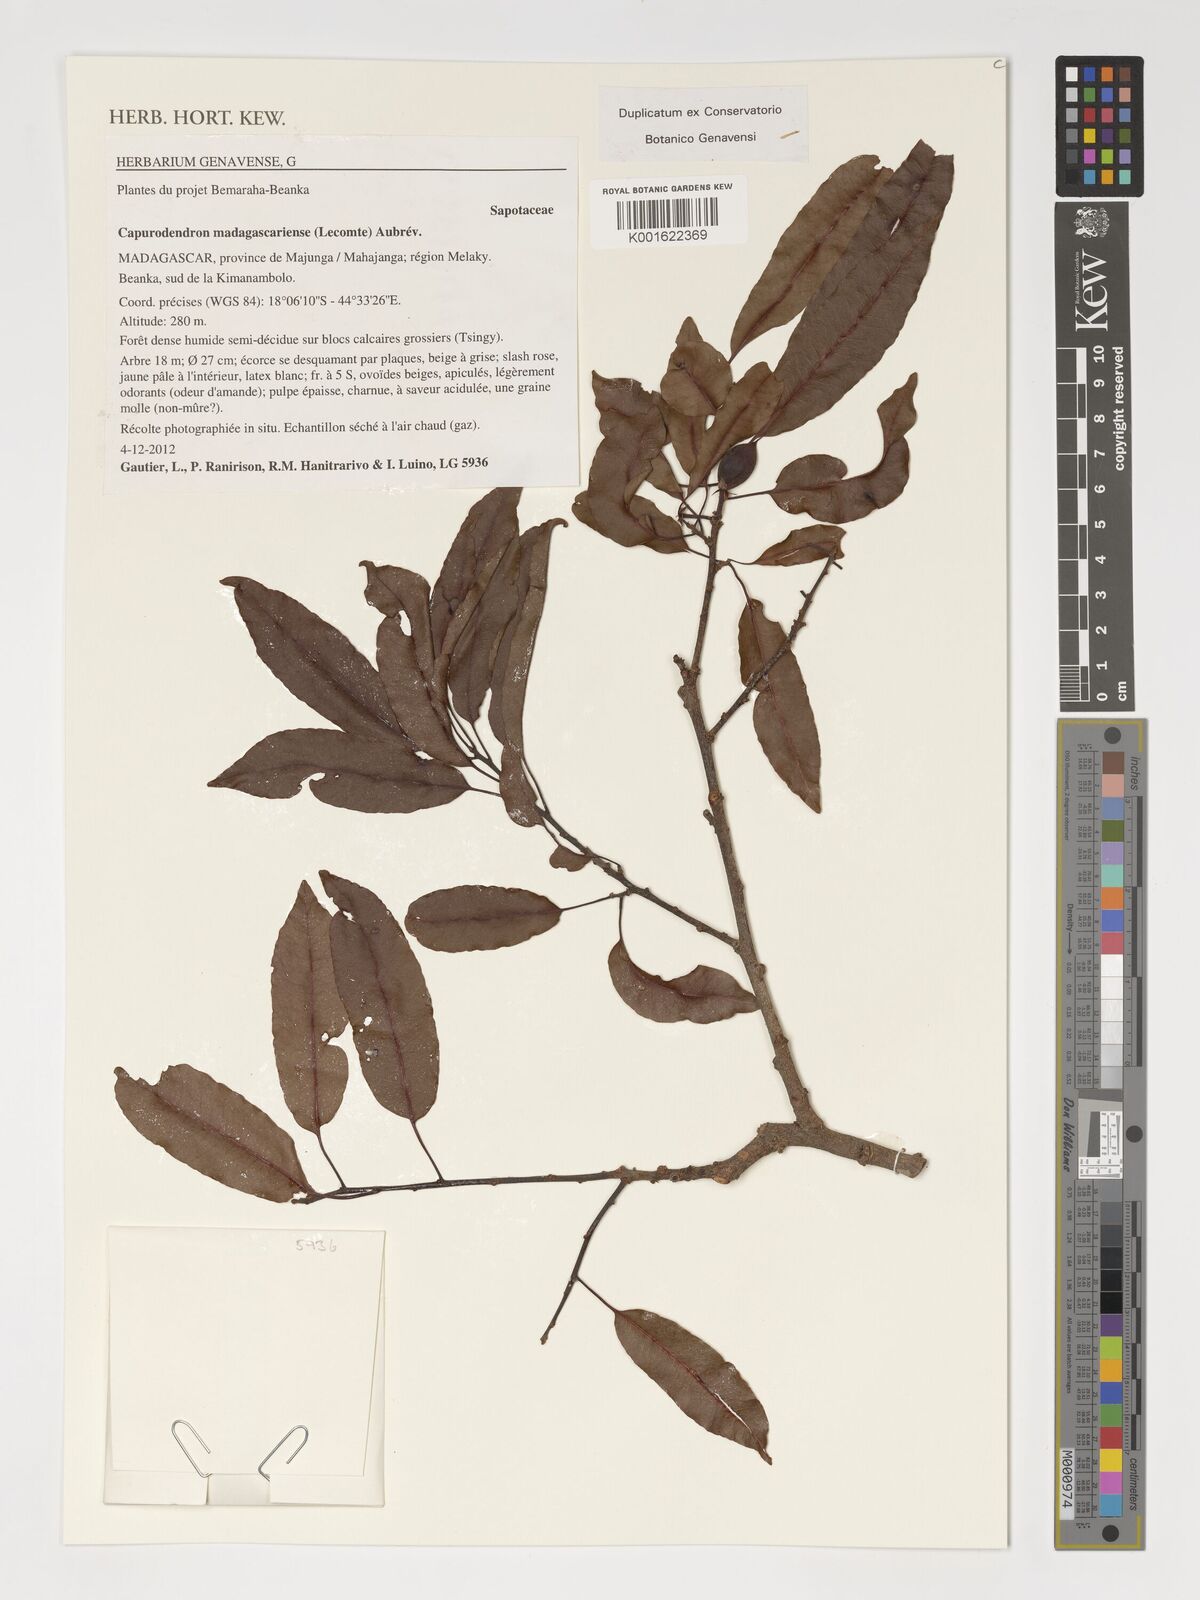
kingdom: Plantae
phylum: Tracheophyta
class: Magnoliopsida
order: Ericales
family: Sapotaceae
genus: Capurodendron
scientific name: Capurodendron madagascariense
